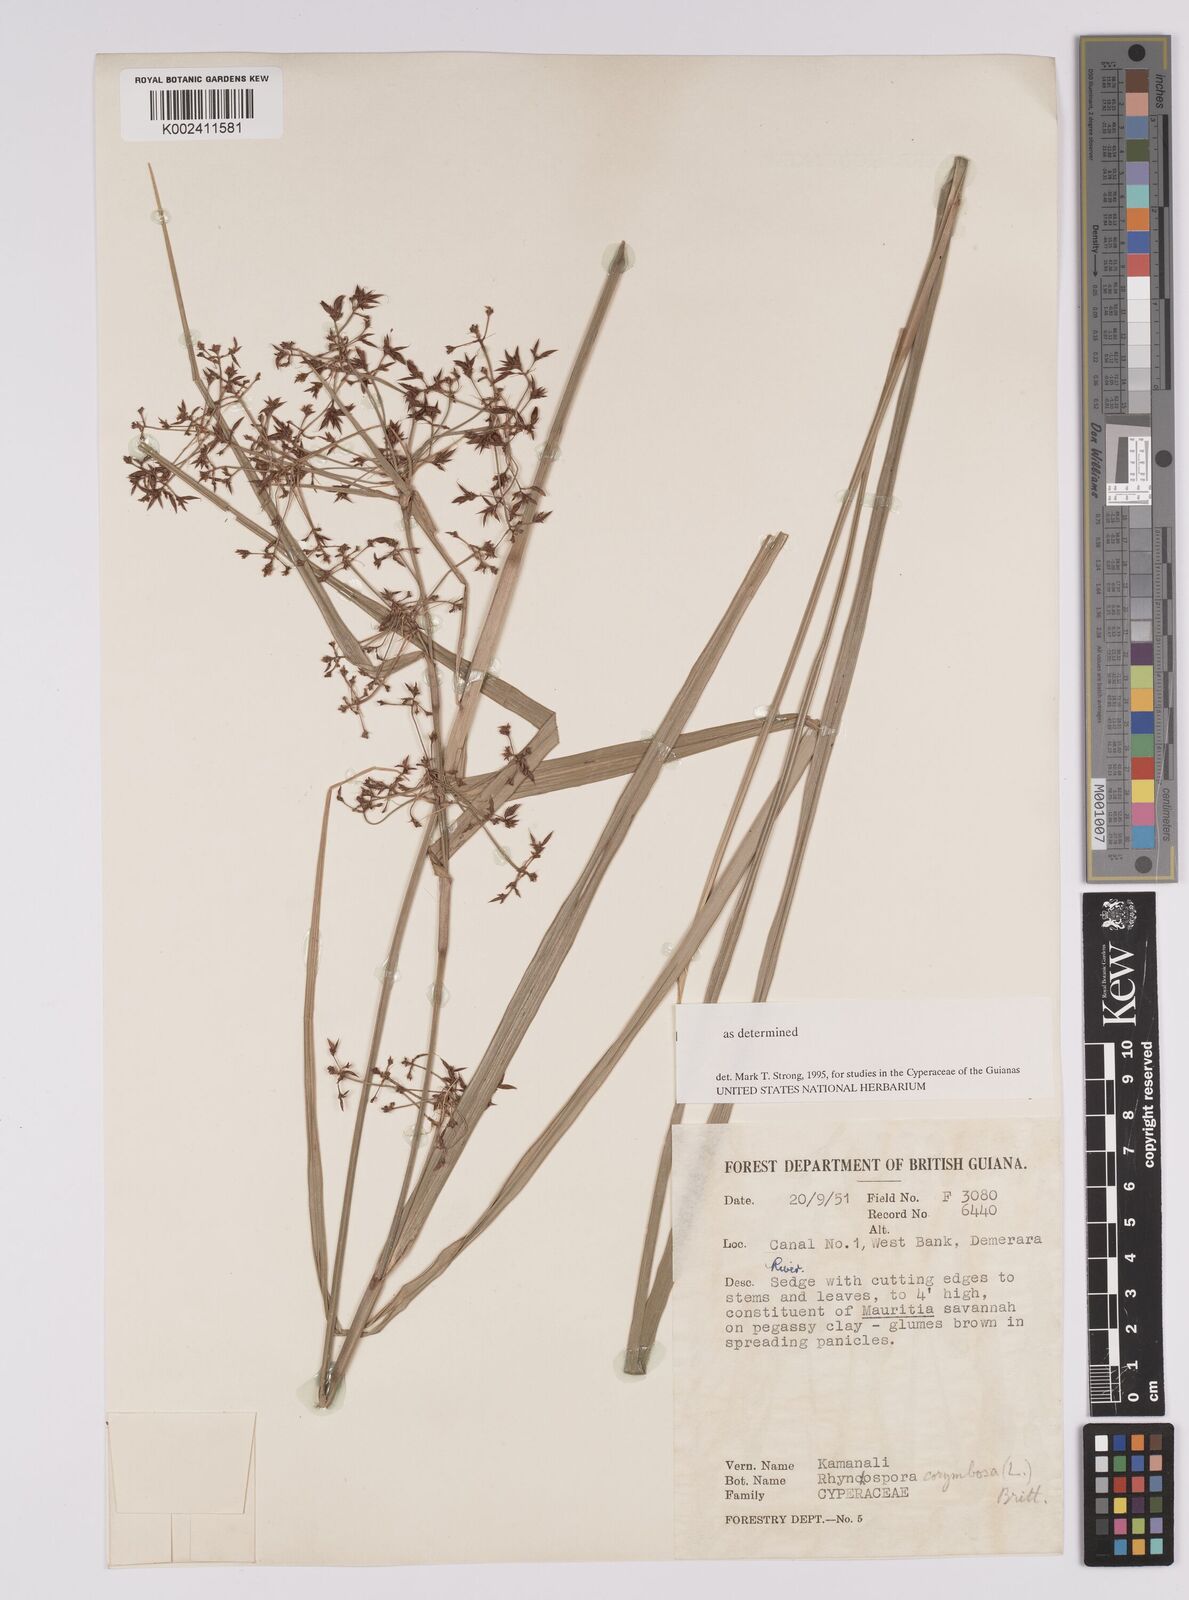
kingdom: Plantae
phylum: Tracheophyta
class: Liliopsida
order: Poales
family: Cyperaceae
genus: Rhynchospora
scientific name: Rhynchospora corymbosa
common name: Golden beak sedge
